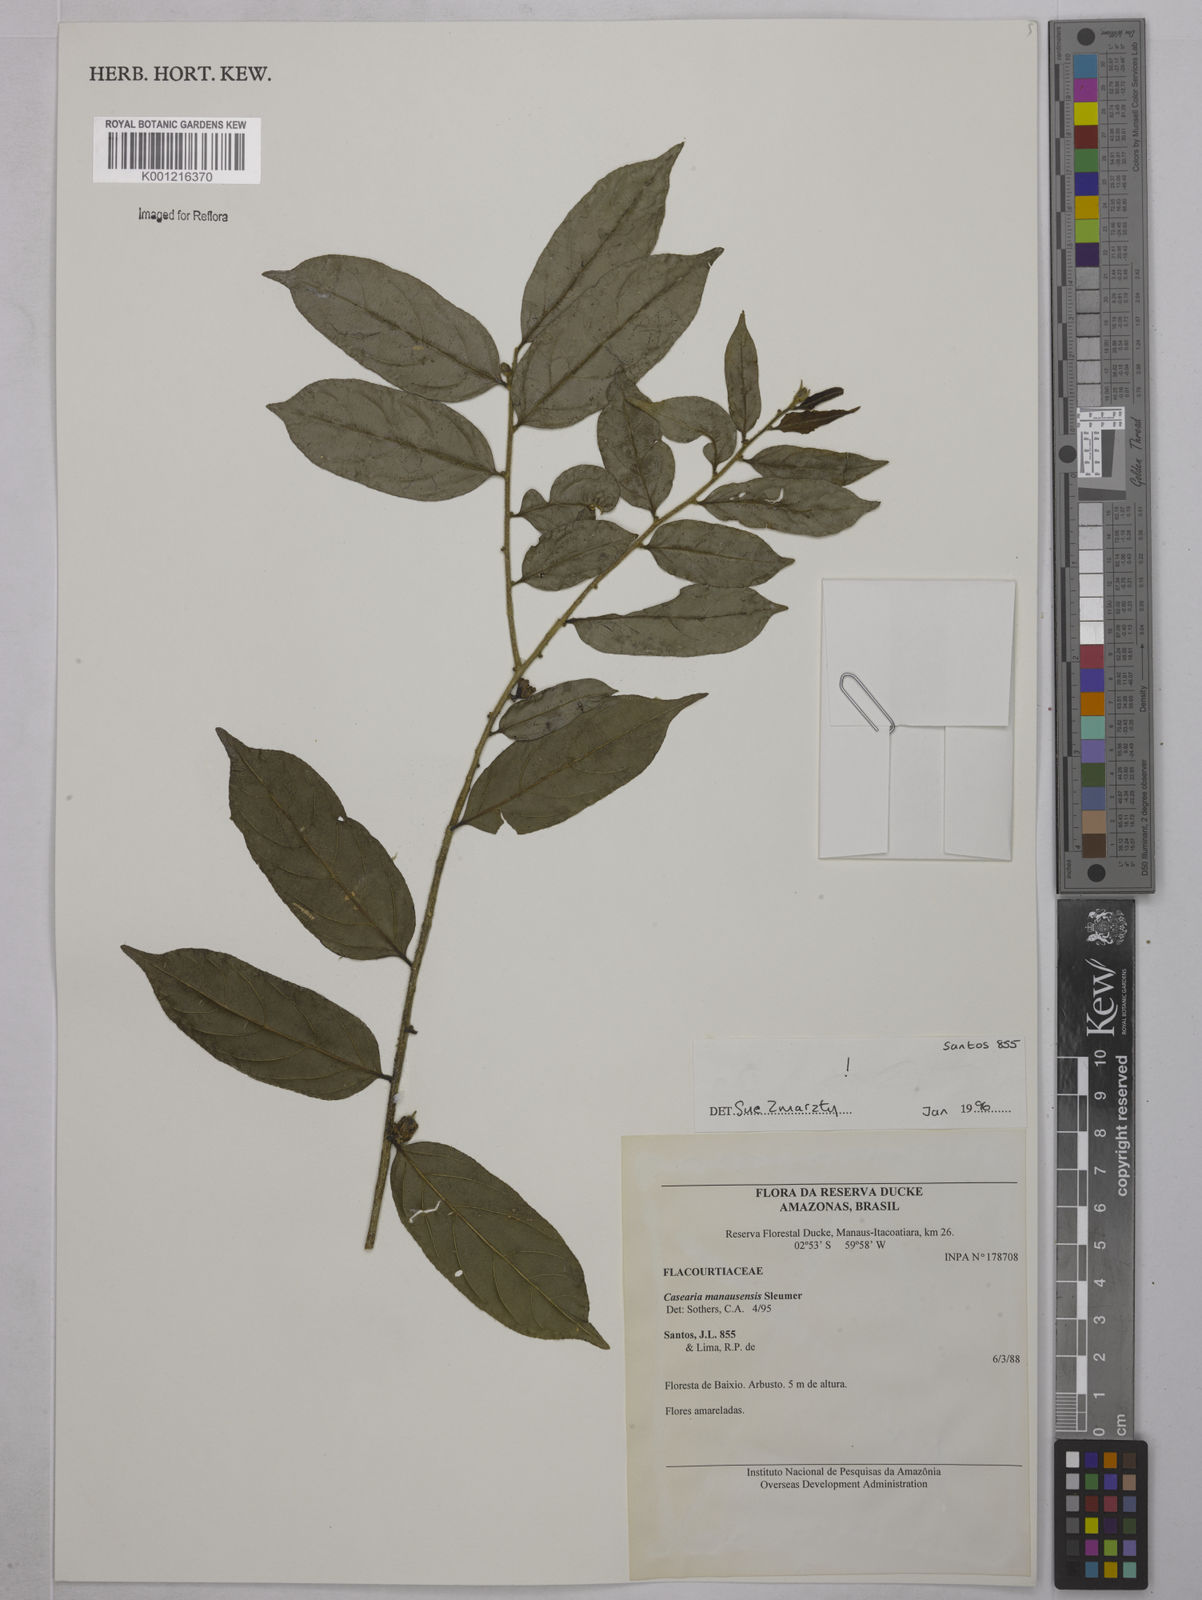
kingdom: Plantae
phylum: Tracheophyta
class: Magnoliopsida
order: Malpighiales
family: Salicaceae
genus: Casearia
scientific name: Casearia manausensis
